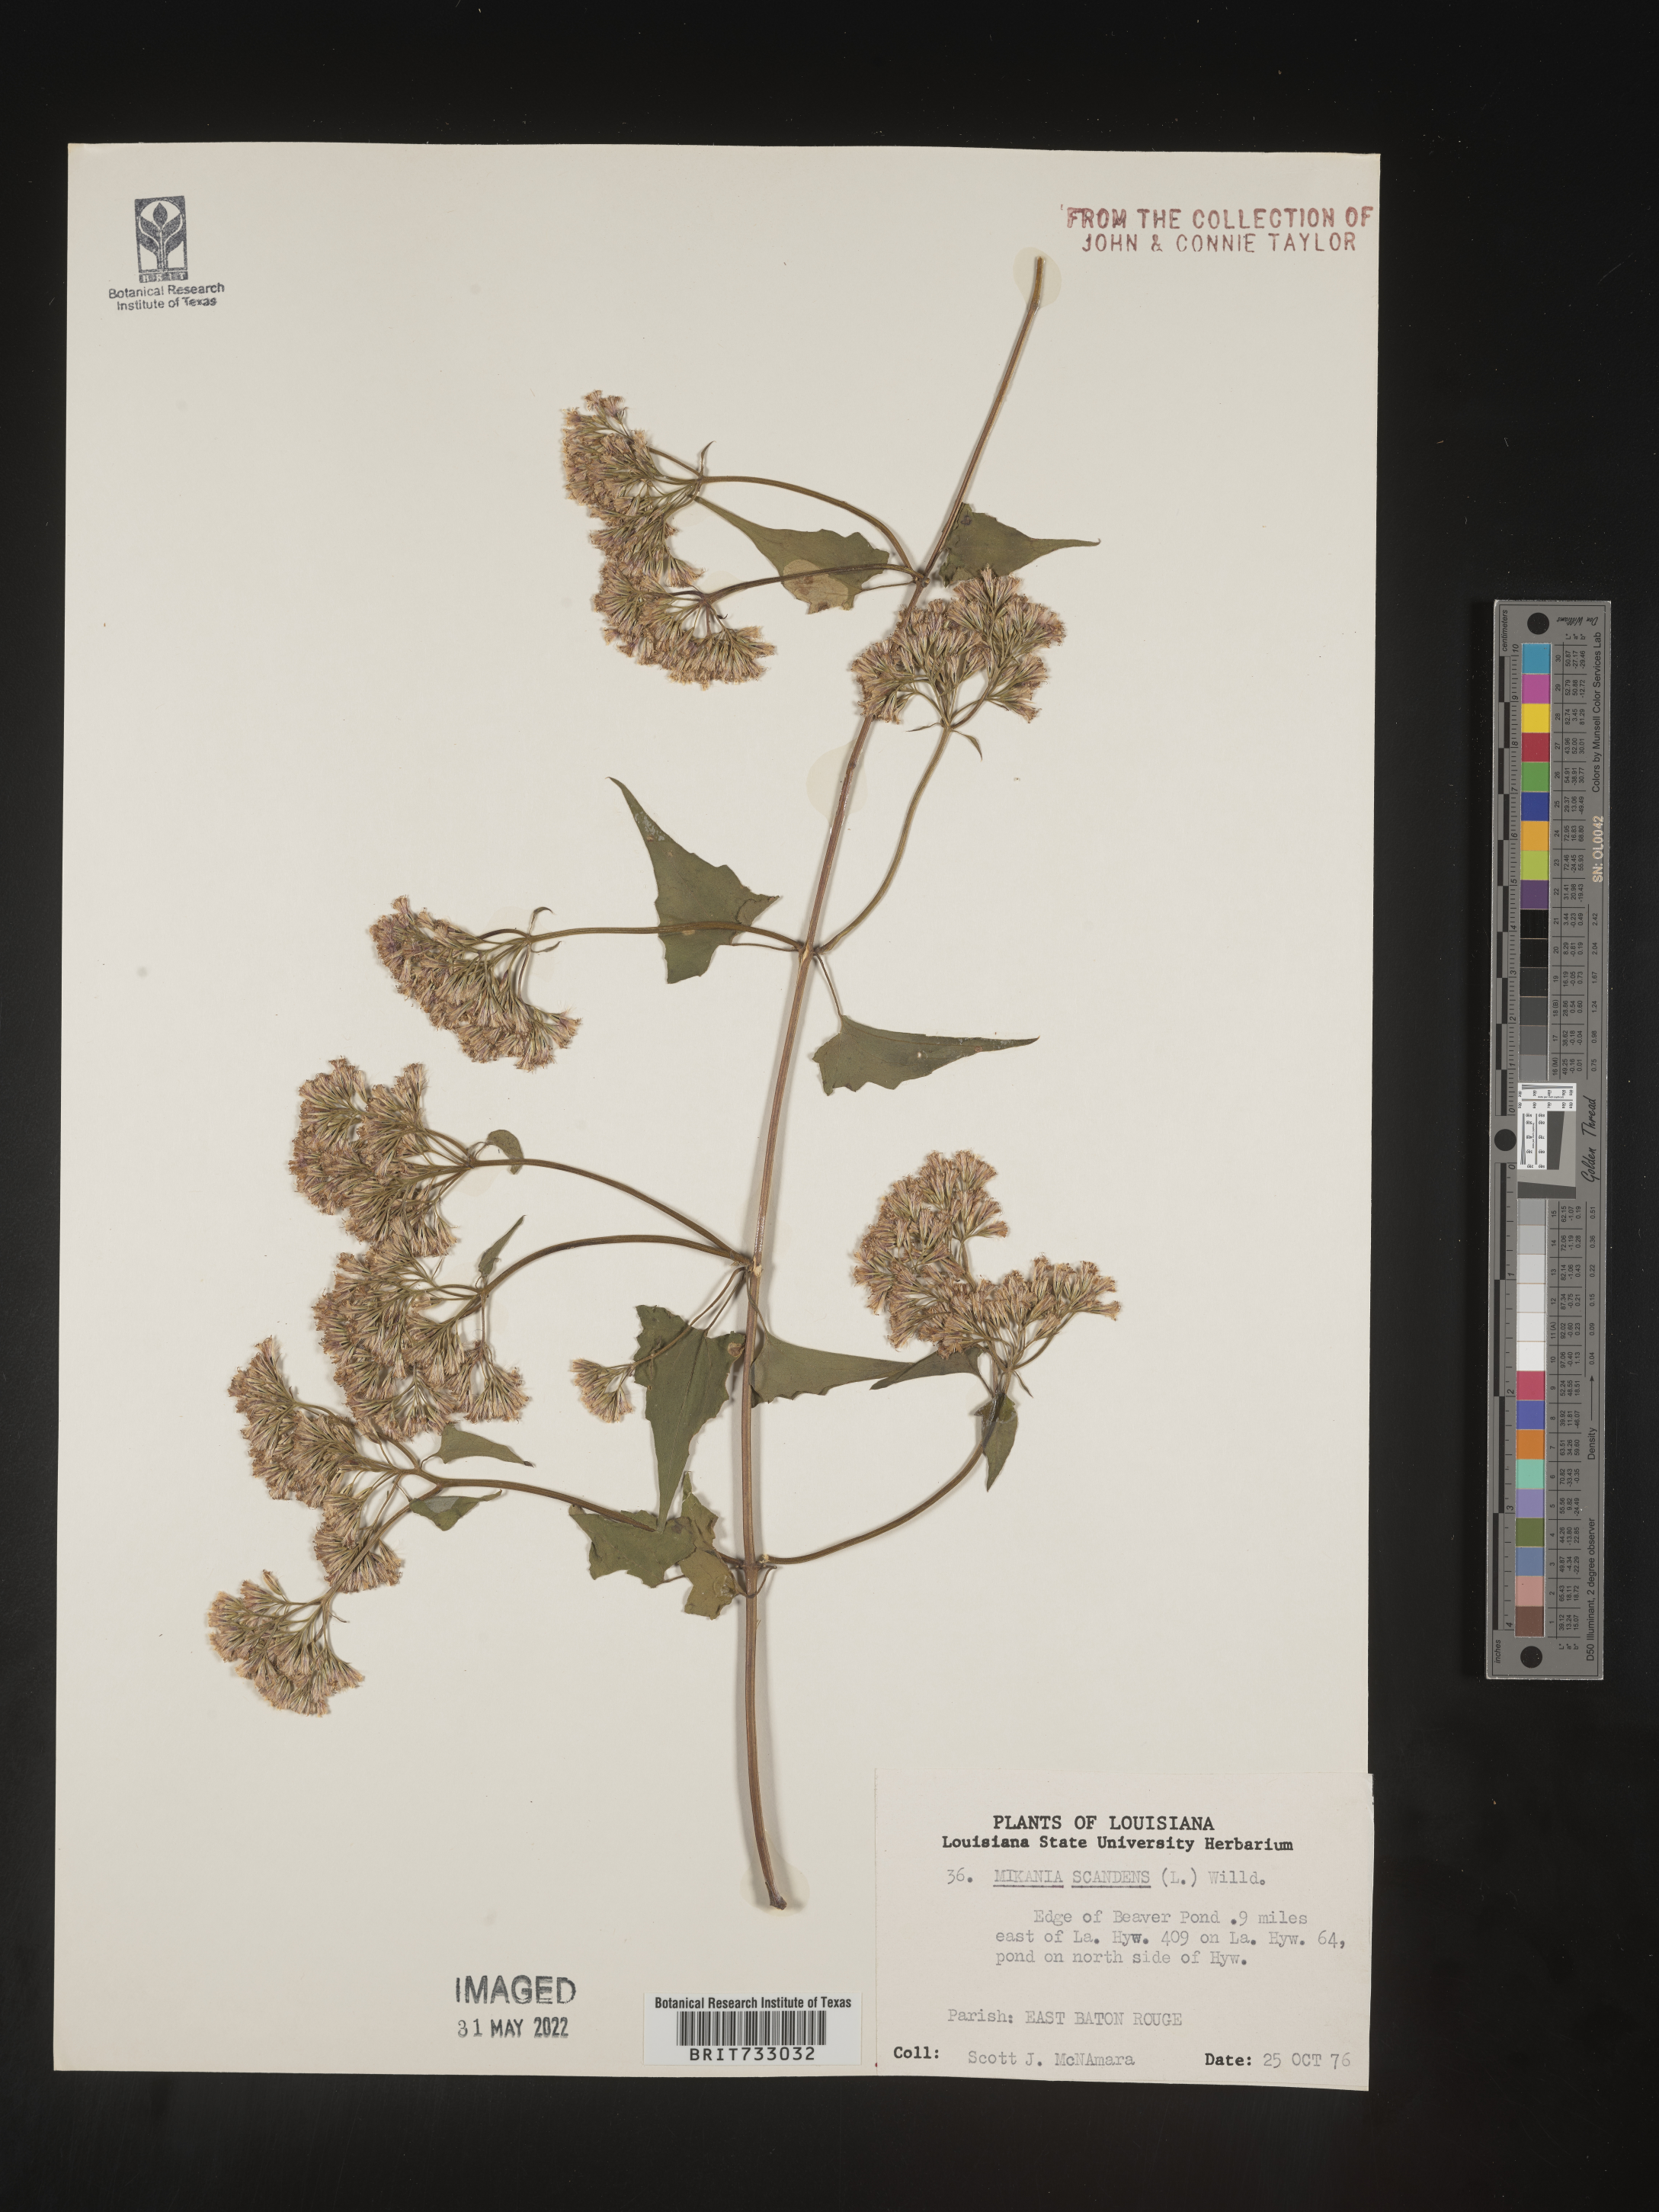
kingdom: Plantae
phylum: Tracheophyta
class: Magnoliopsida
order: Asterales
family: Asteraceae
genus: Mikania
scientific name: Mikania scandens
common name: Climbing hempvine
